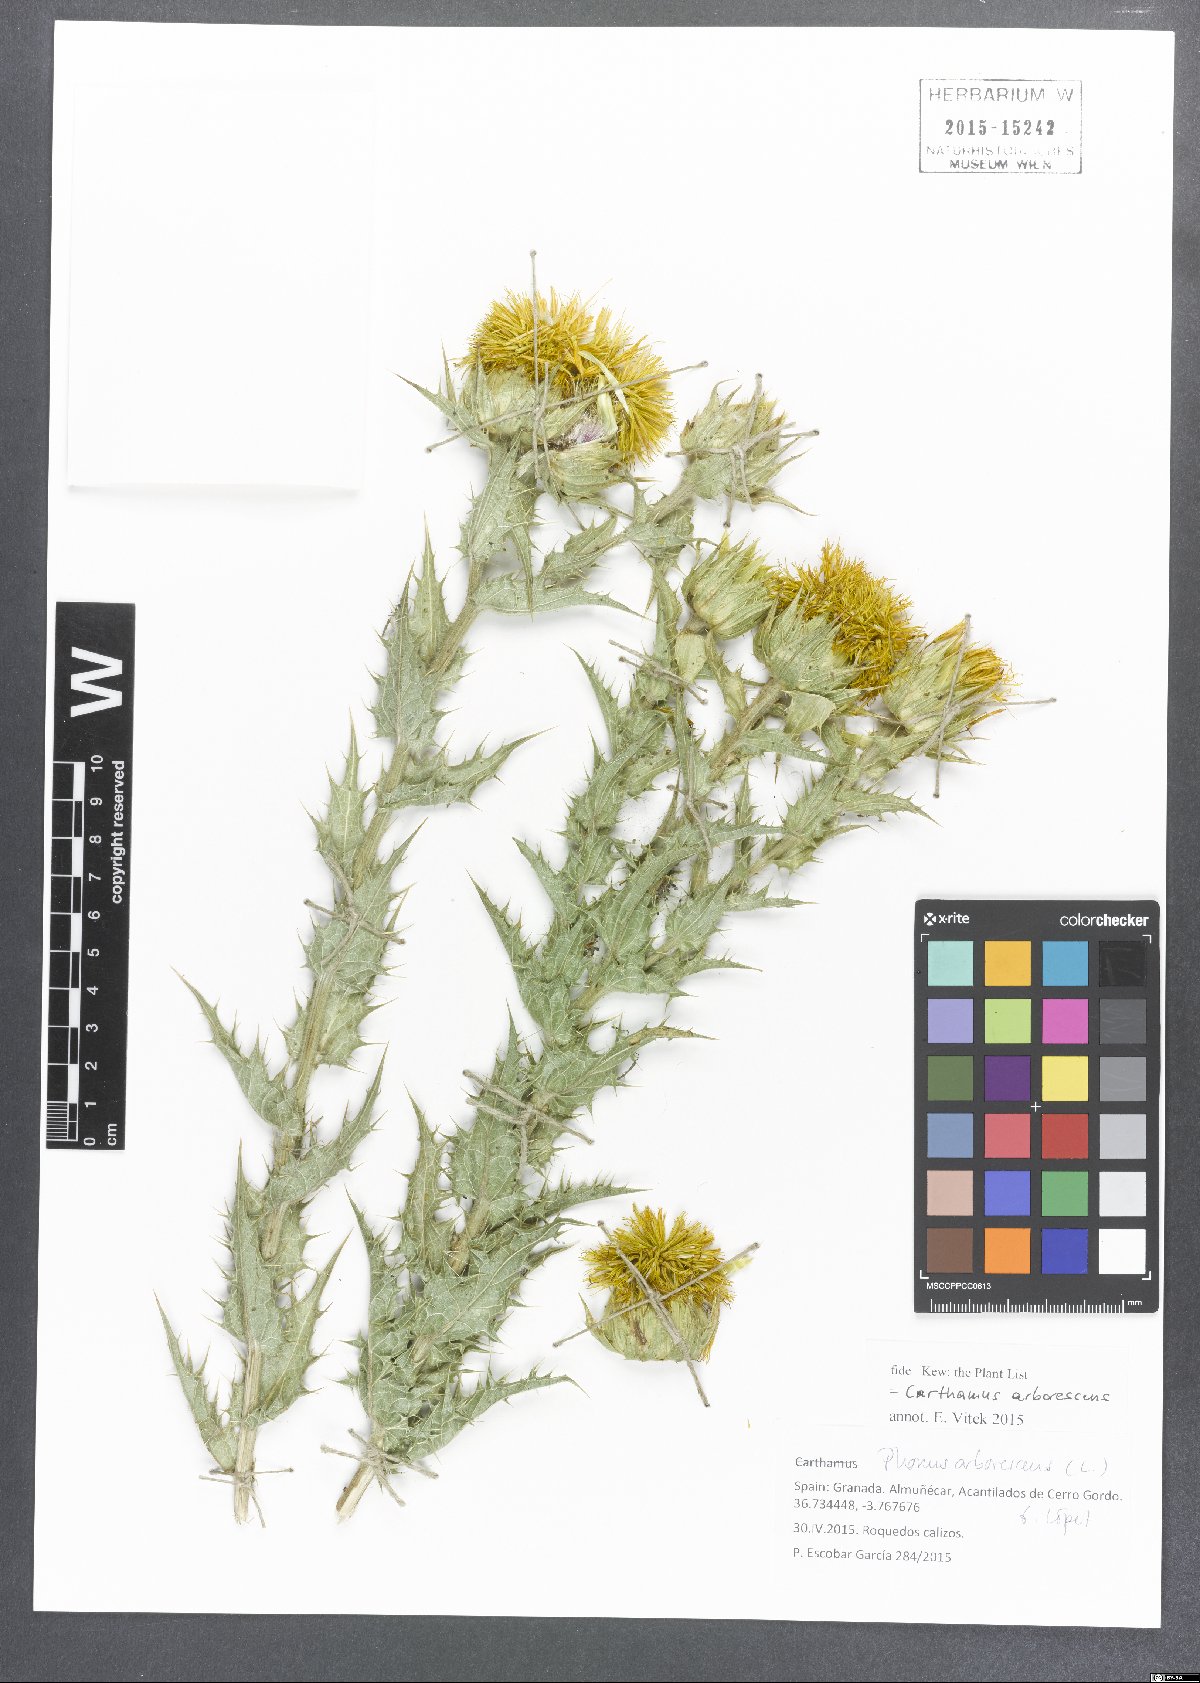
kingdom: Plantae
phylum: Tracheophyta
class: Magnoliopsida
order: Asterales
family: Asteraceae
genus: Phonus
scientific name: Phonus arborescens
